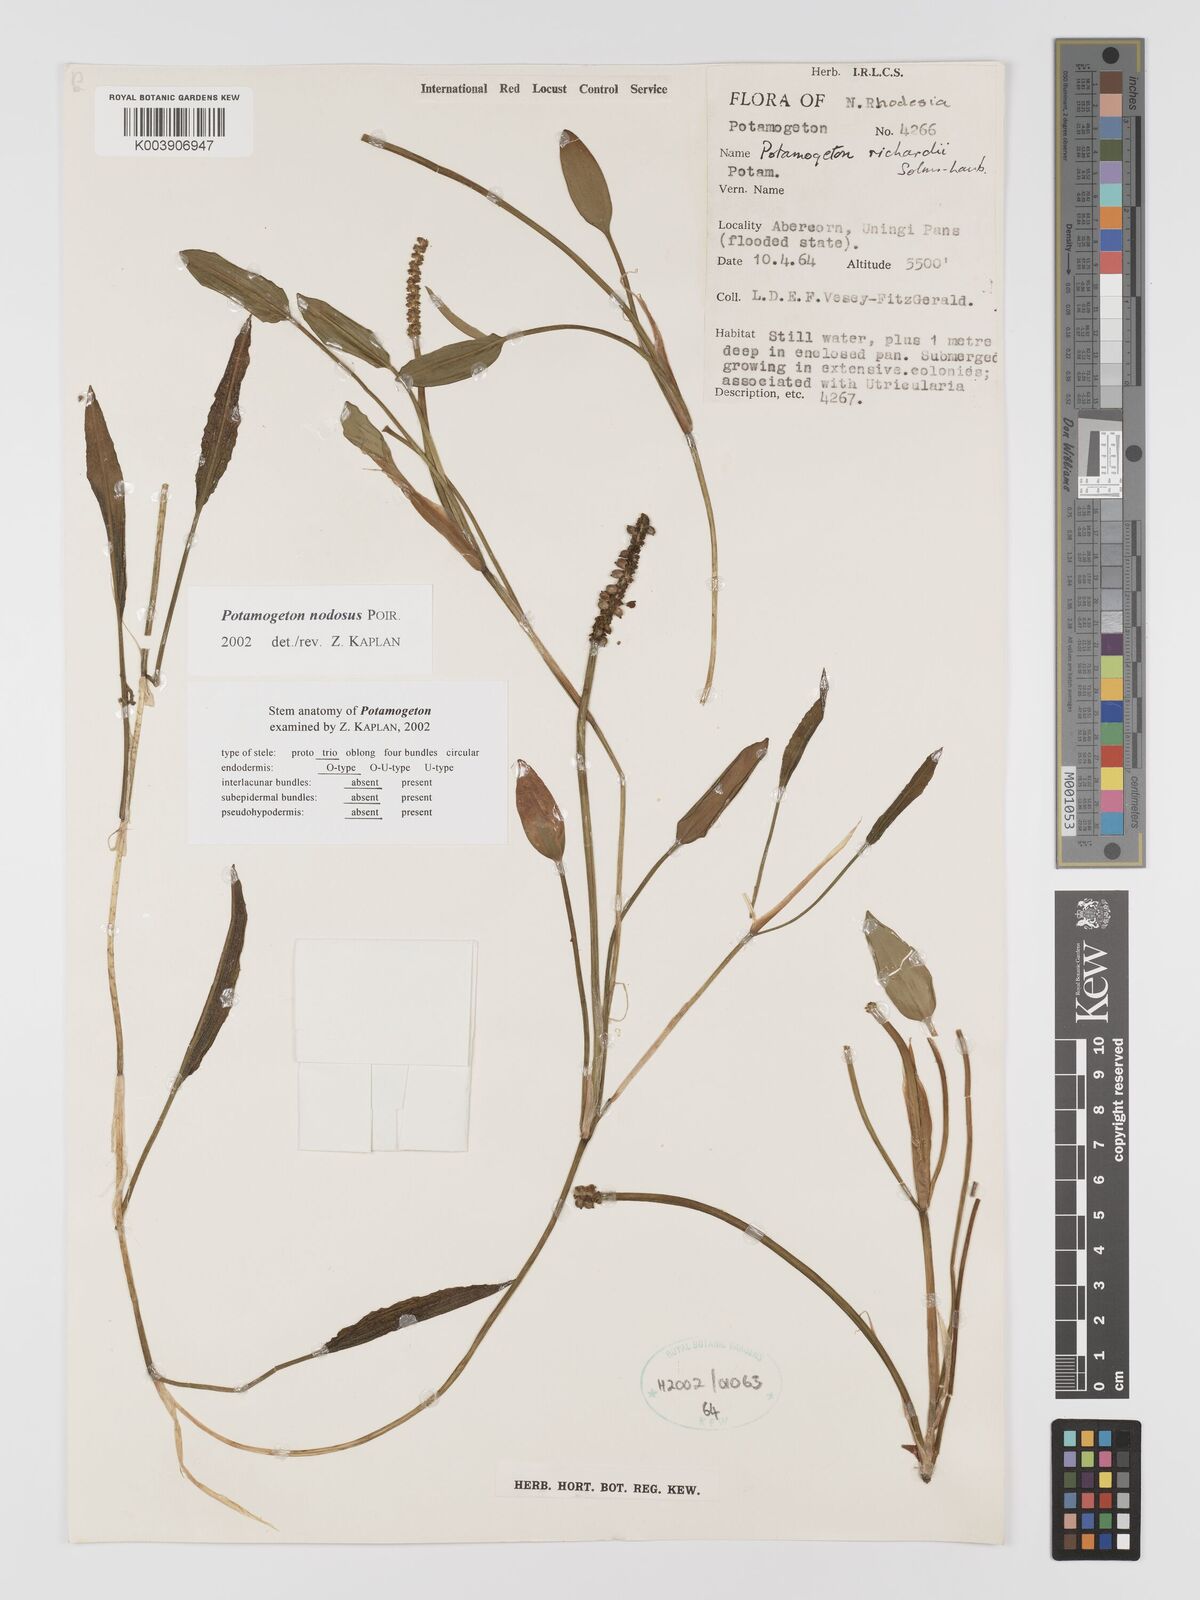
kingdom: Plantae
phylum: Tracheophyta
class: Liliopsida
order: Alismatales
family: Potamogetonaceae
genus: Potamogeton
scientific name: Potamogeton nodosus
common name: Loddon pondweed
